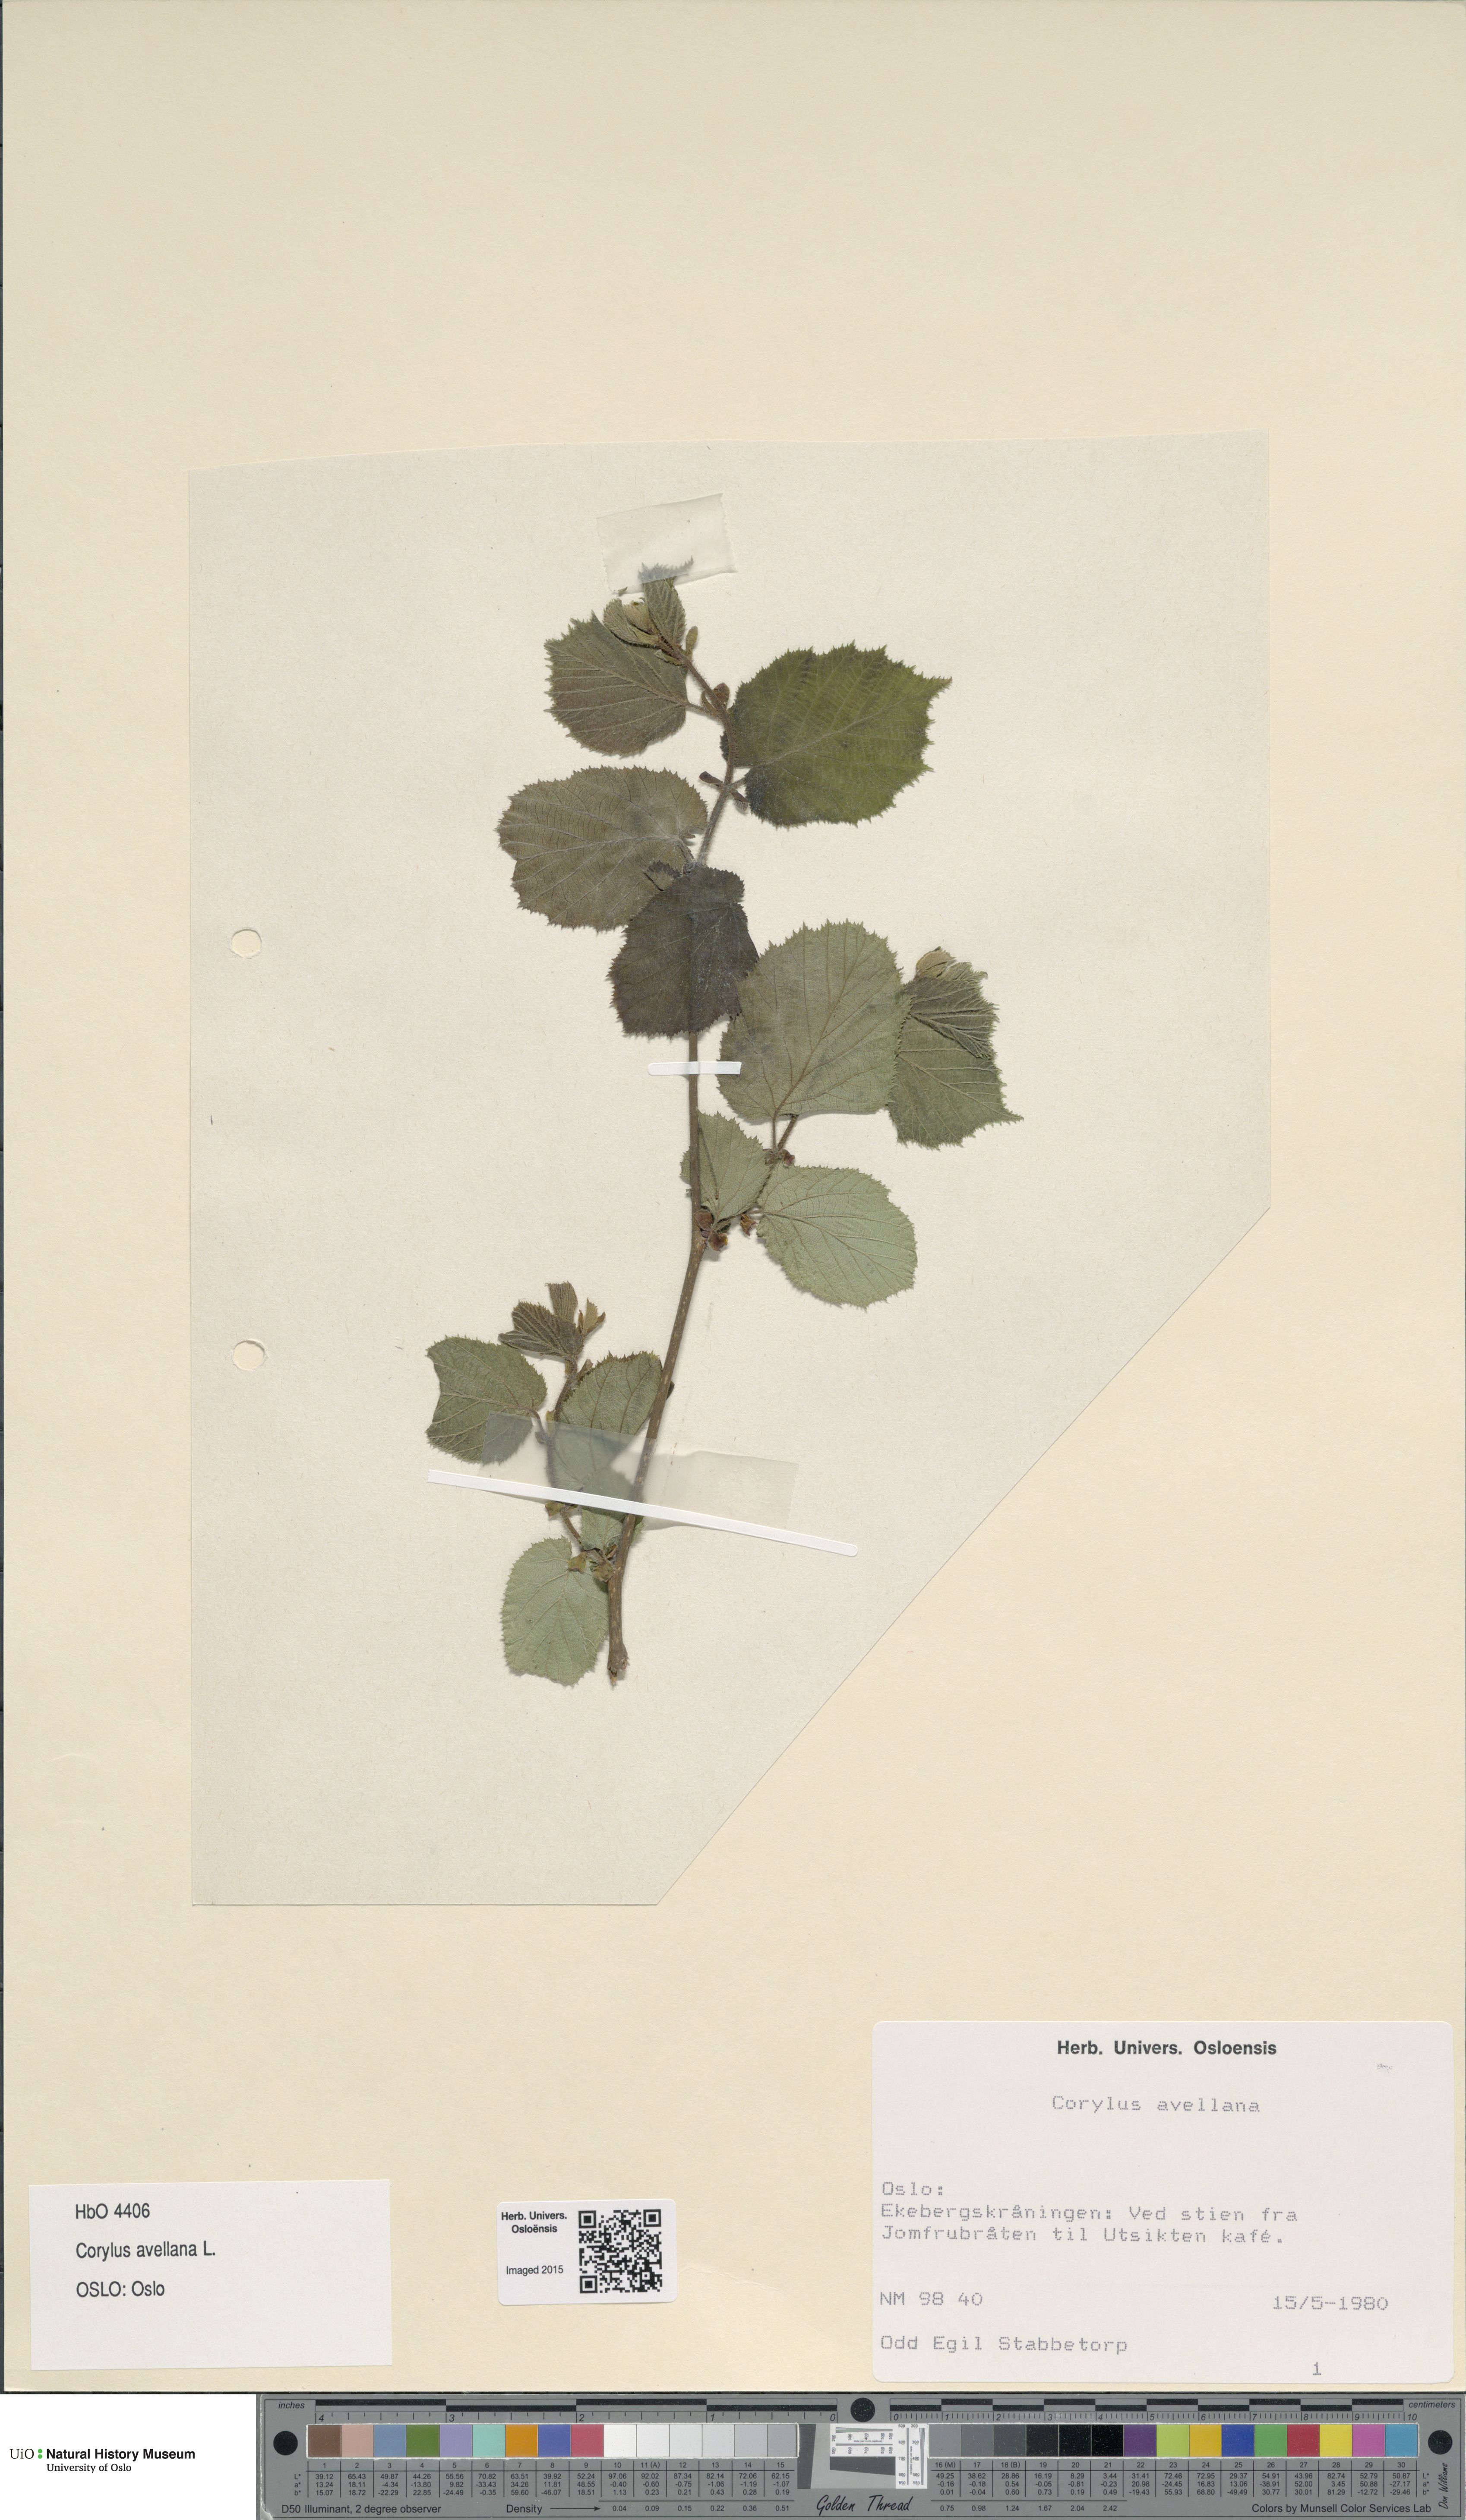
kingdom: Plantae
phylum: Tracheophyta
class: Magnoliopsida
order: Fagales
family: Betulaceae
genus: Corylus
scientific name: Corylus avellana
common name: European hazel
